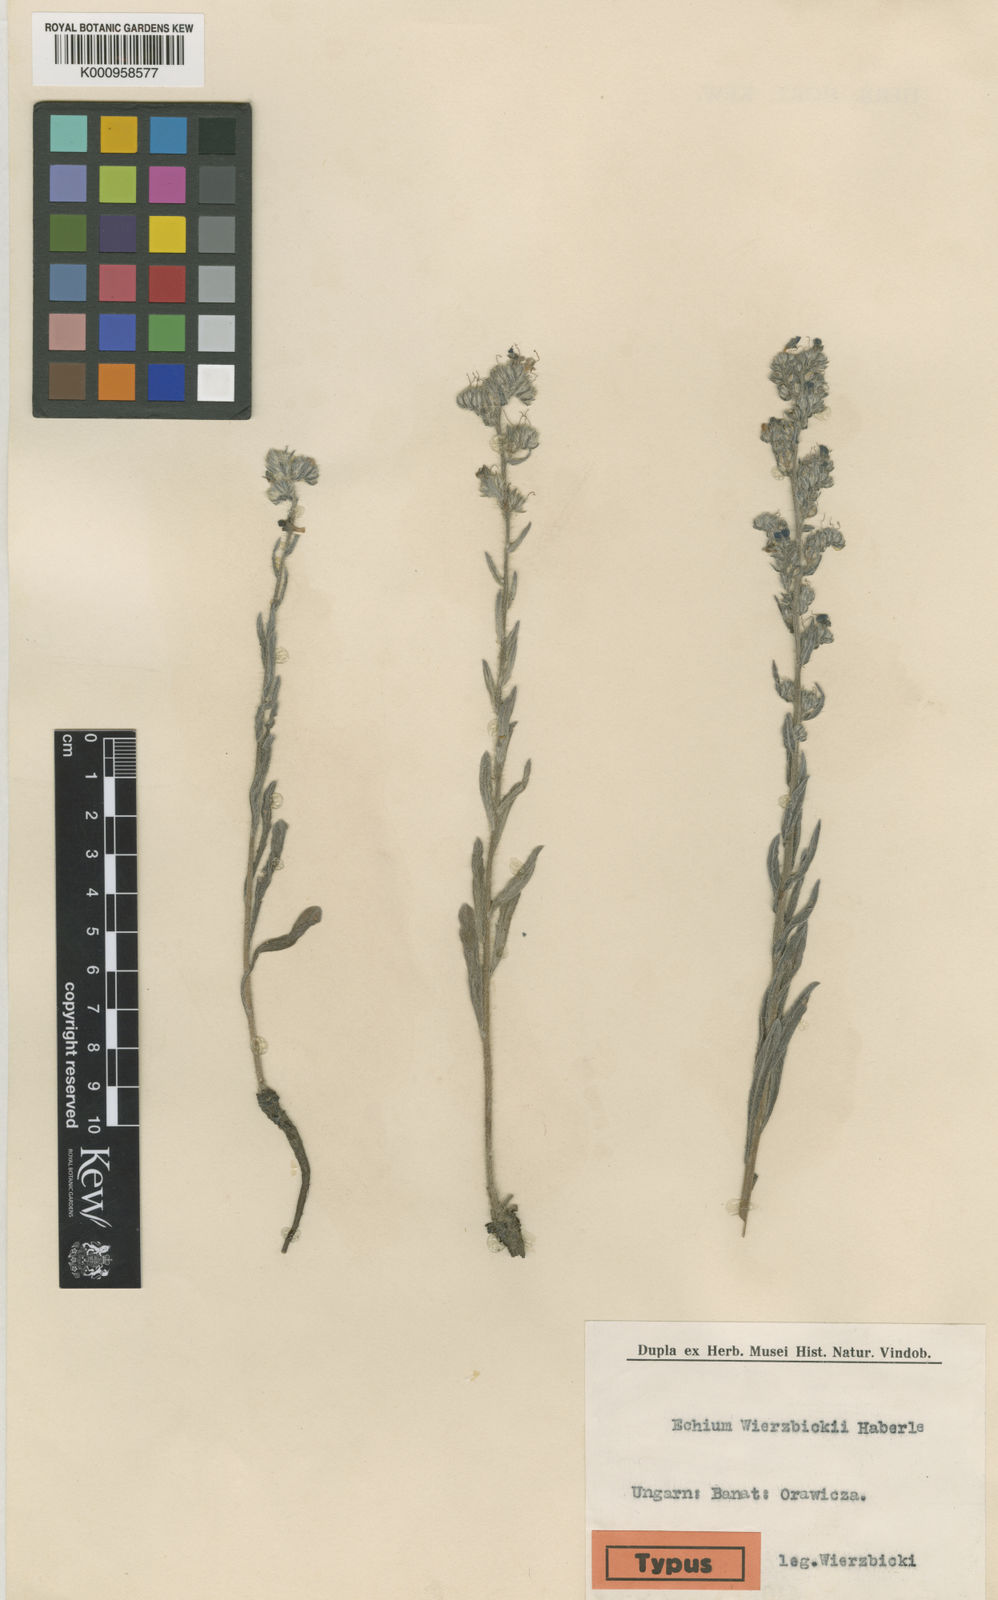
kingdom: Plantae
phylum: Tracheophyta
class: Magnoliopsida
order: Boraginales
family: Boraginaceae
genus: Echium
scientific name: Echium vulgare
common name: Common viper's bugloss
